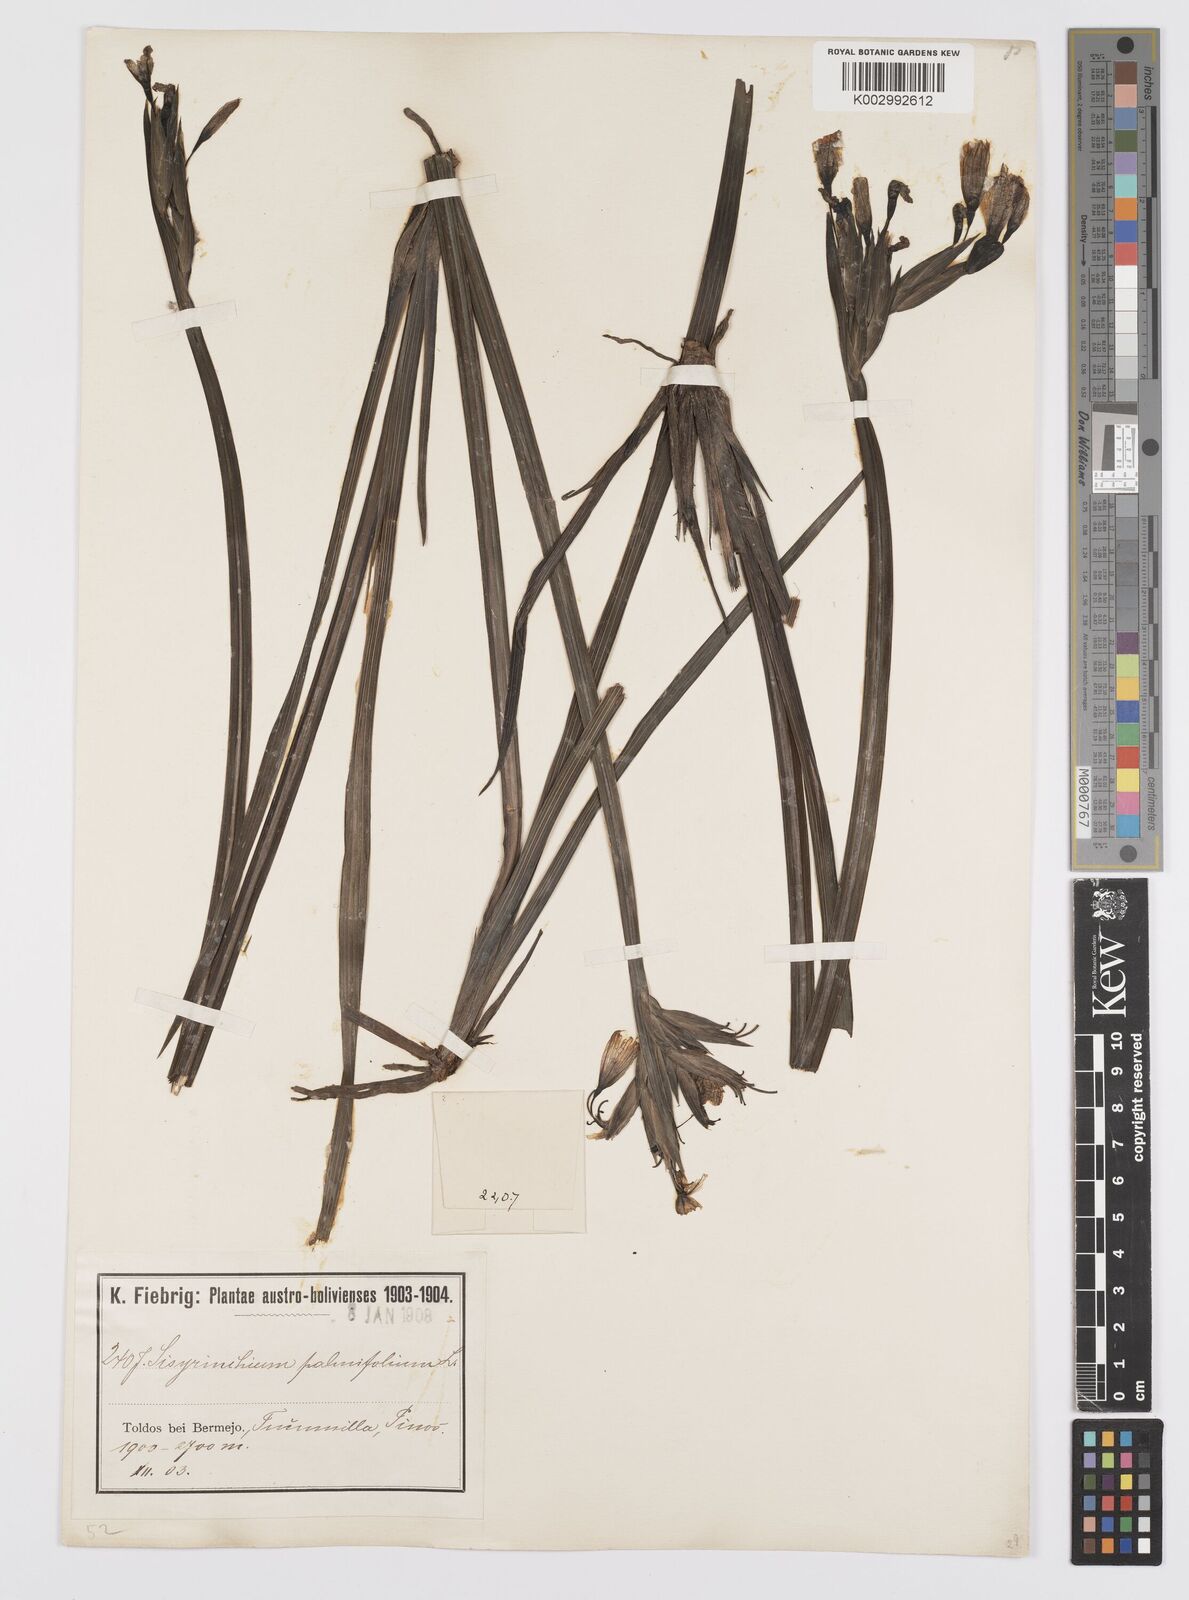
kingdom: Plantae
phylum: Tracheophyta
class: Liliopsida
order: Asparagales
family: Iridaceae
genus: Sisyrinchium
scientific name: Sisyrinchium palmifolium
